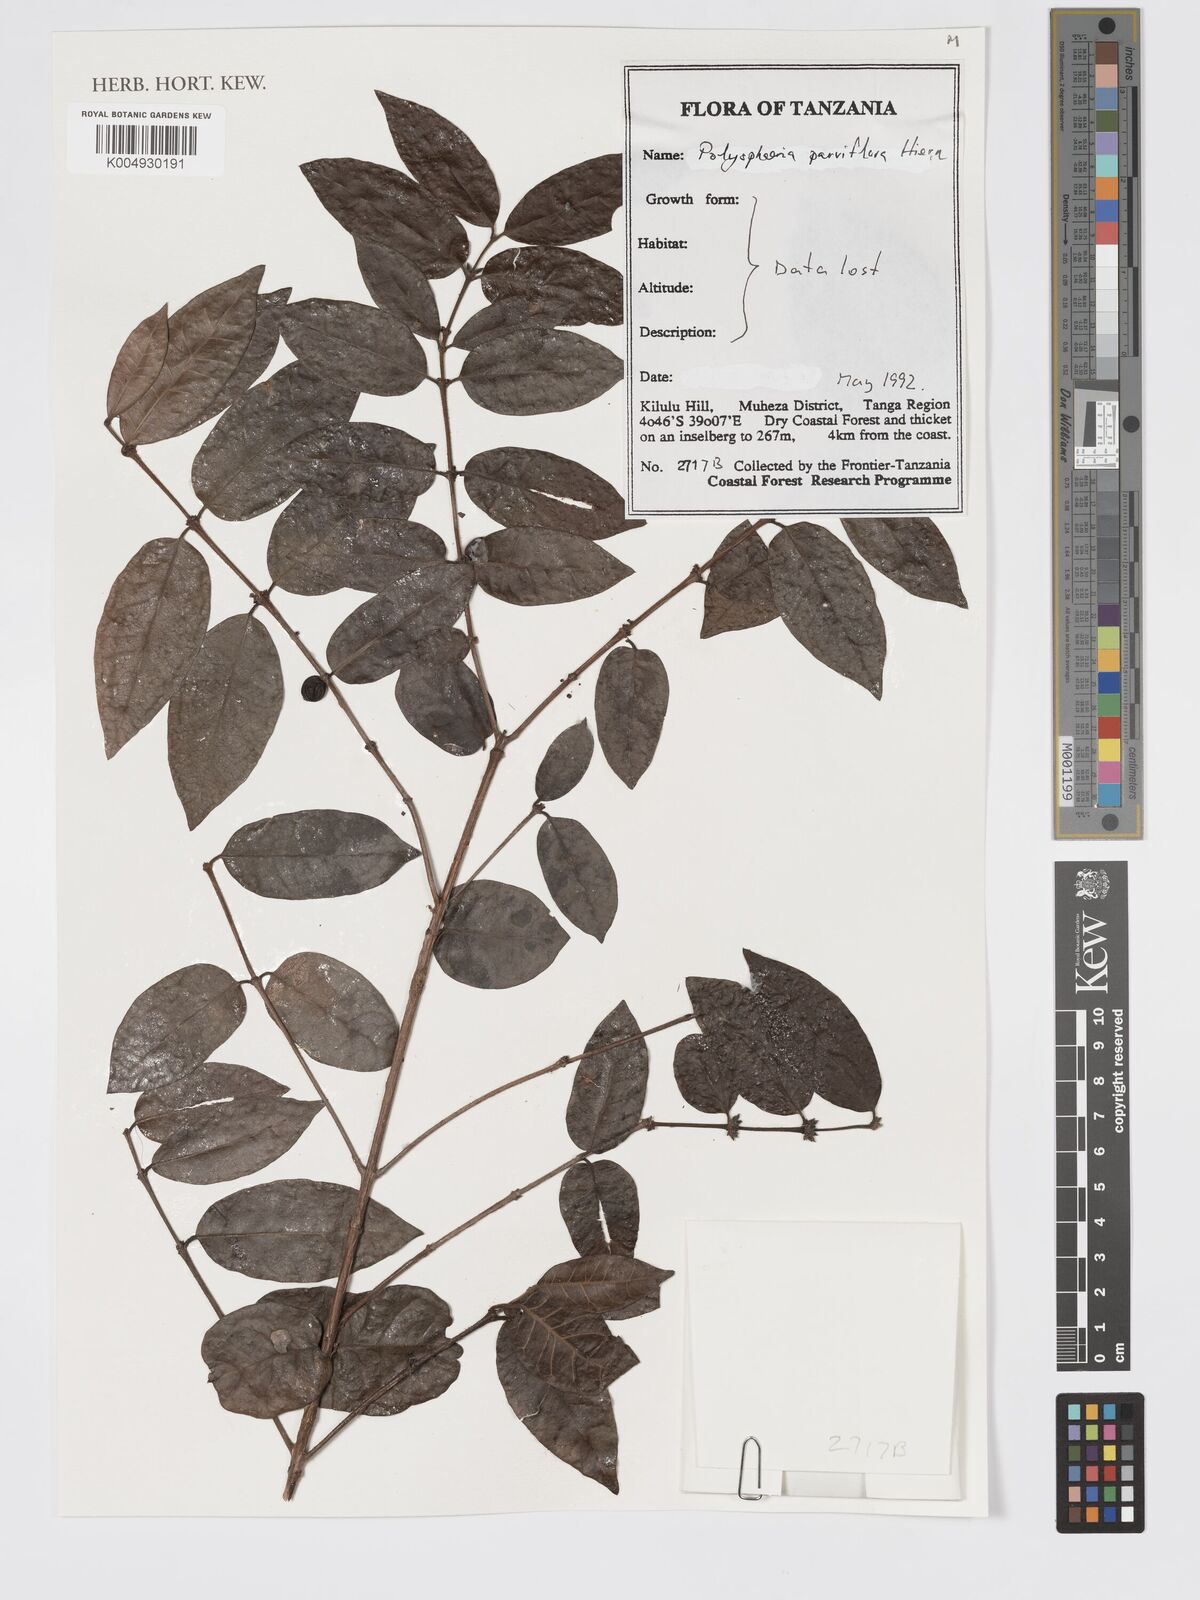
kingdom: Plantae
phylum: Tracheophyta
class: Magnoliopsida
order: Gentianales
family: Rubiaceae
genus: Polysphaeria
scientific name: Polysphaeria parvifolia
